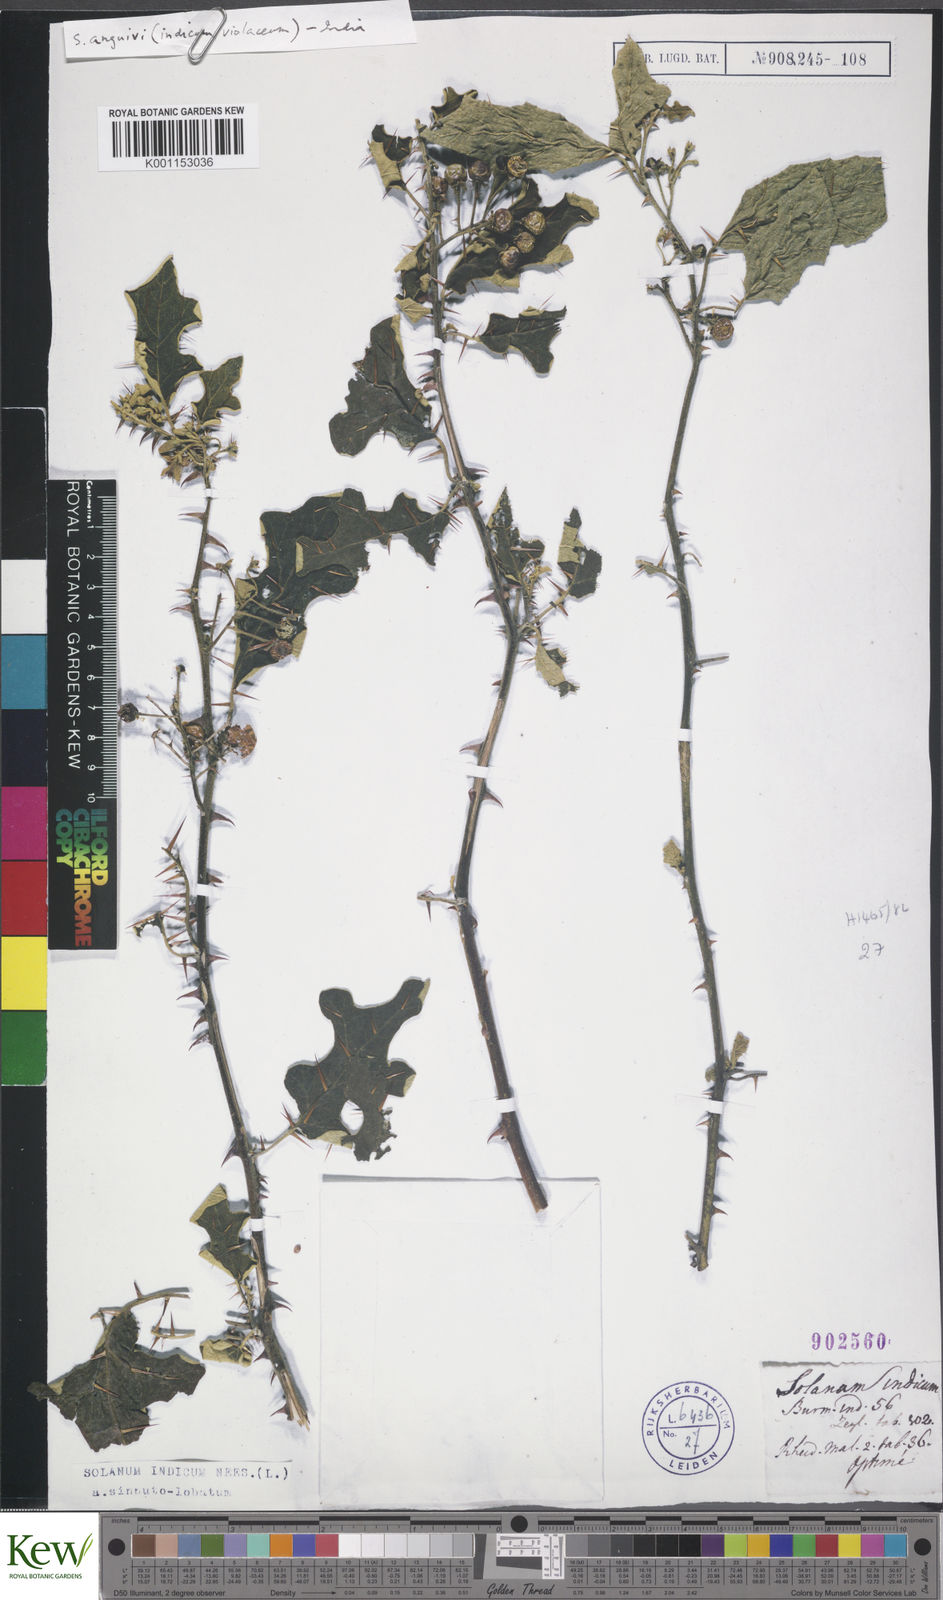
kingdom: Plantae
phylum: Tracheophyta
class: Magnoliopsida
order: Solanales
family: Solanaceae
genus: Solanum
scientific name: Solanum violaceum
